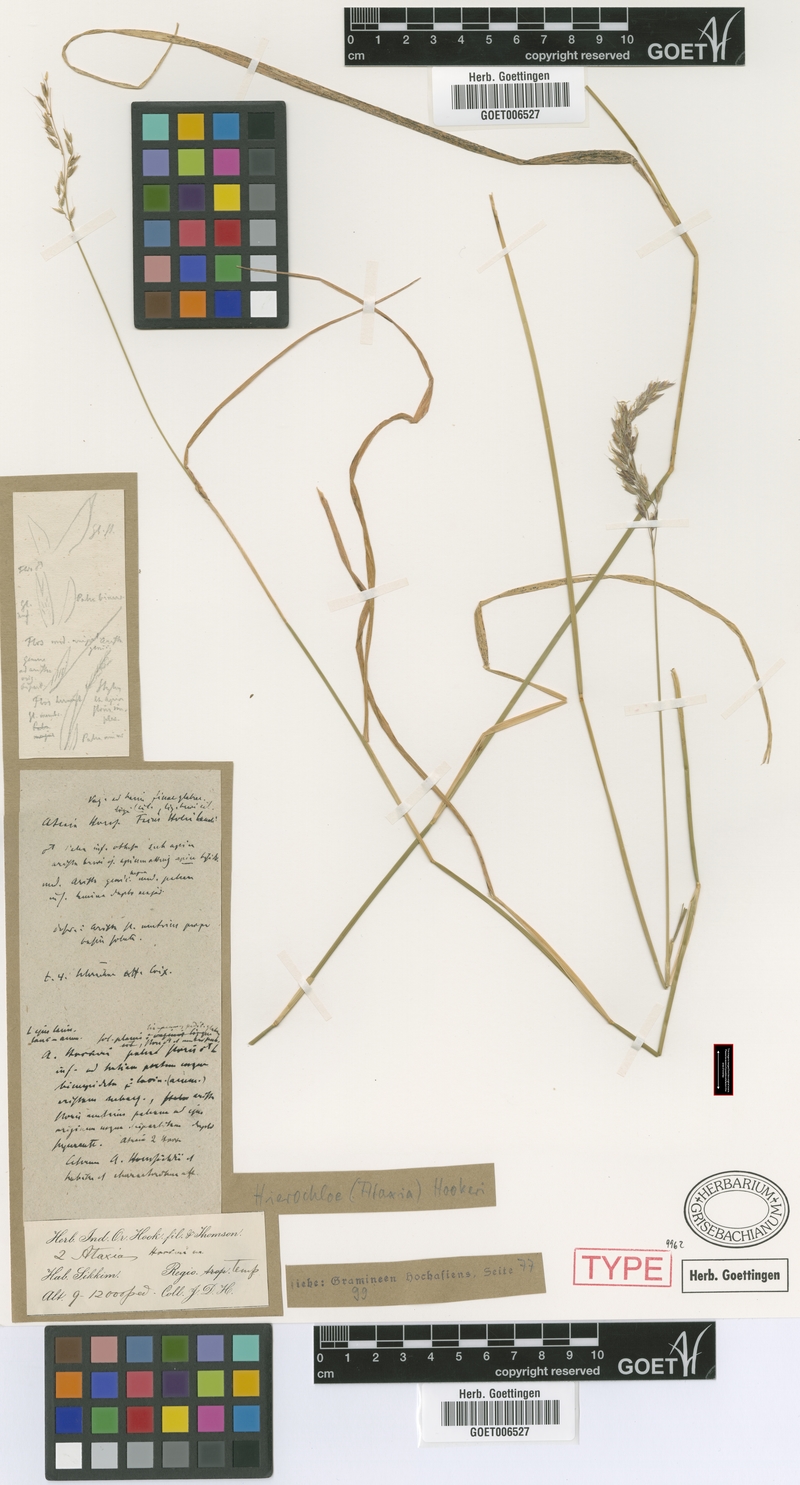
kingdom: Plantae
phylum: Tracheophyta
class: Liliopsida
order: Poales
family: Poaceae
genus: Anthoxanthum
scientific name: Anthoxanthum hookeri
